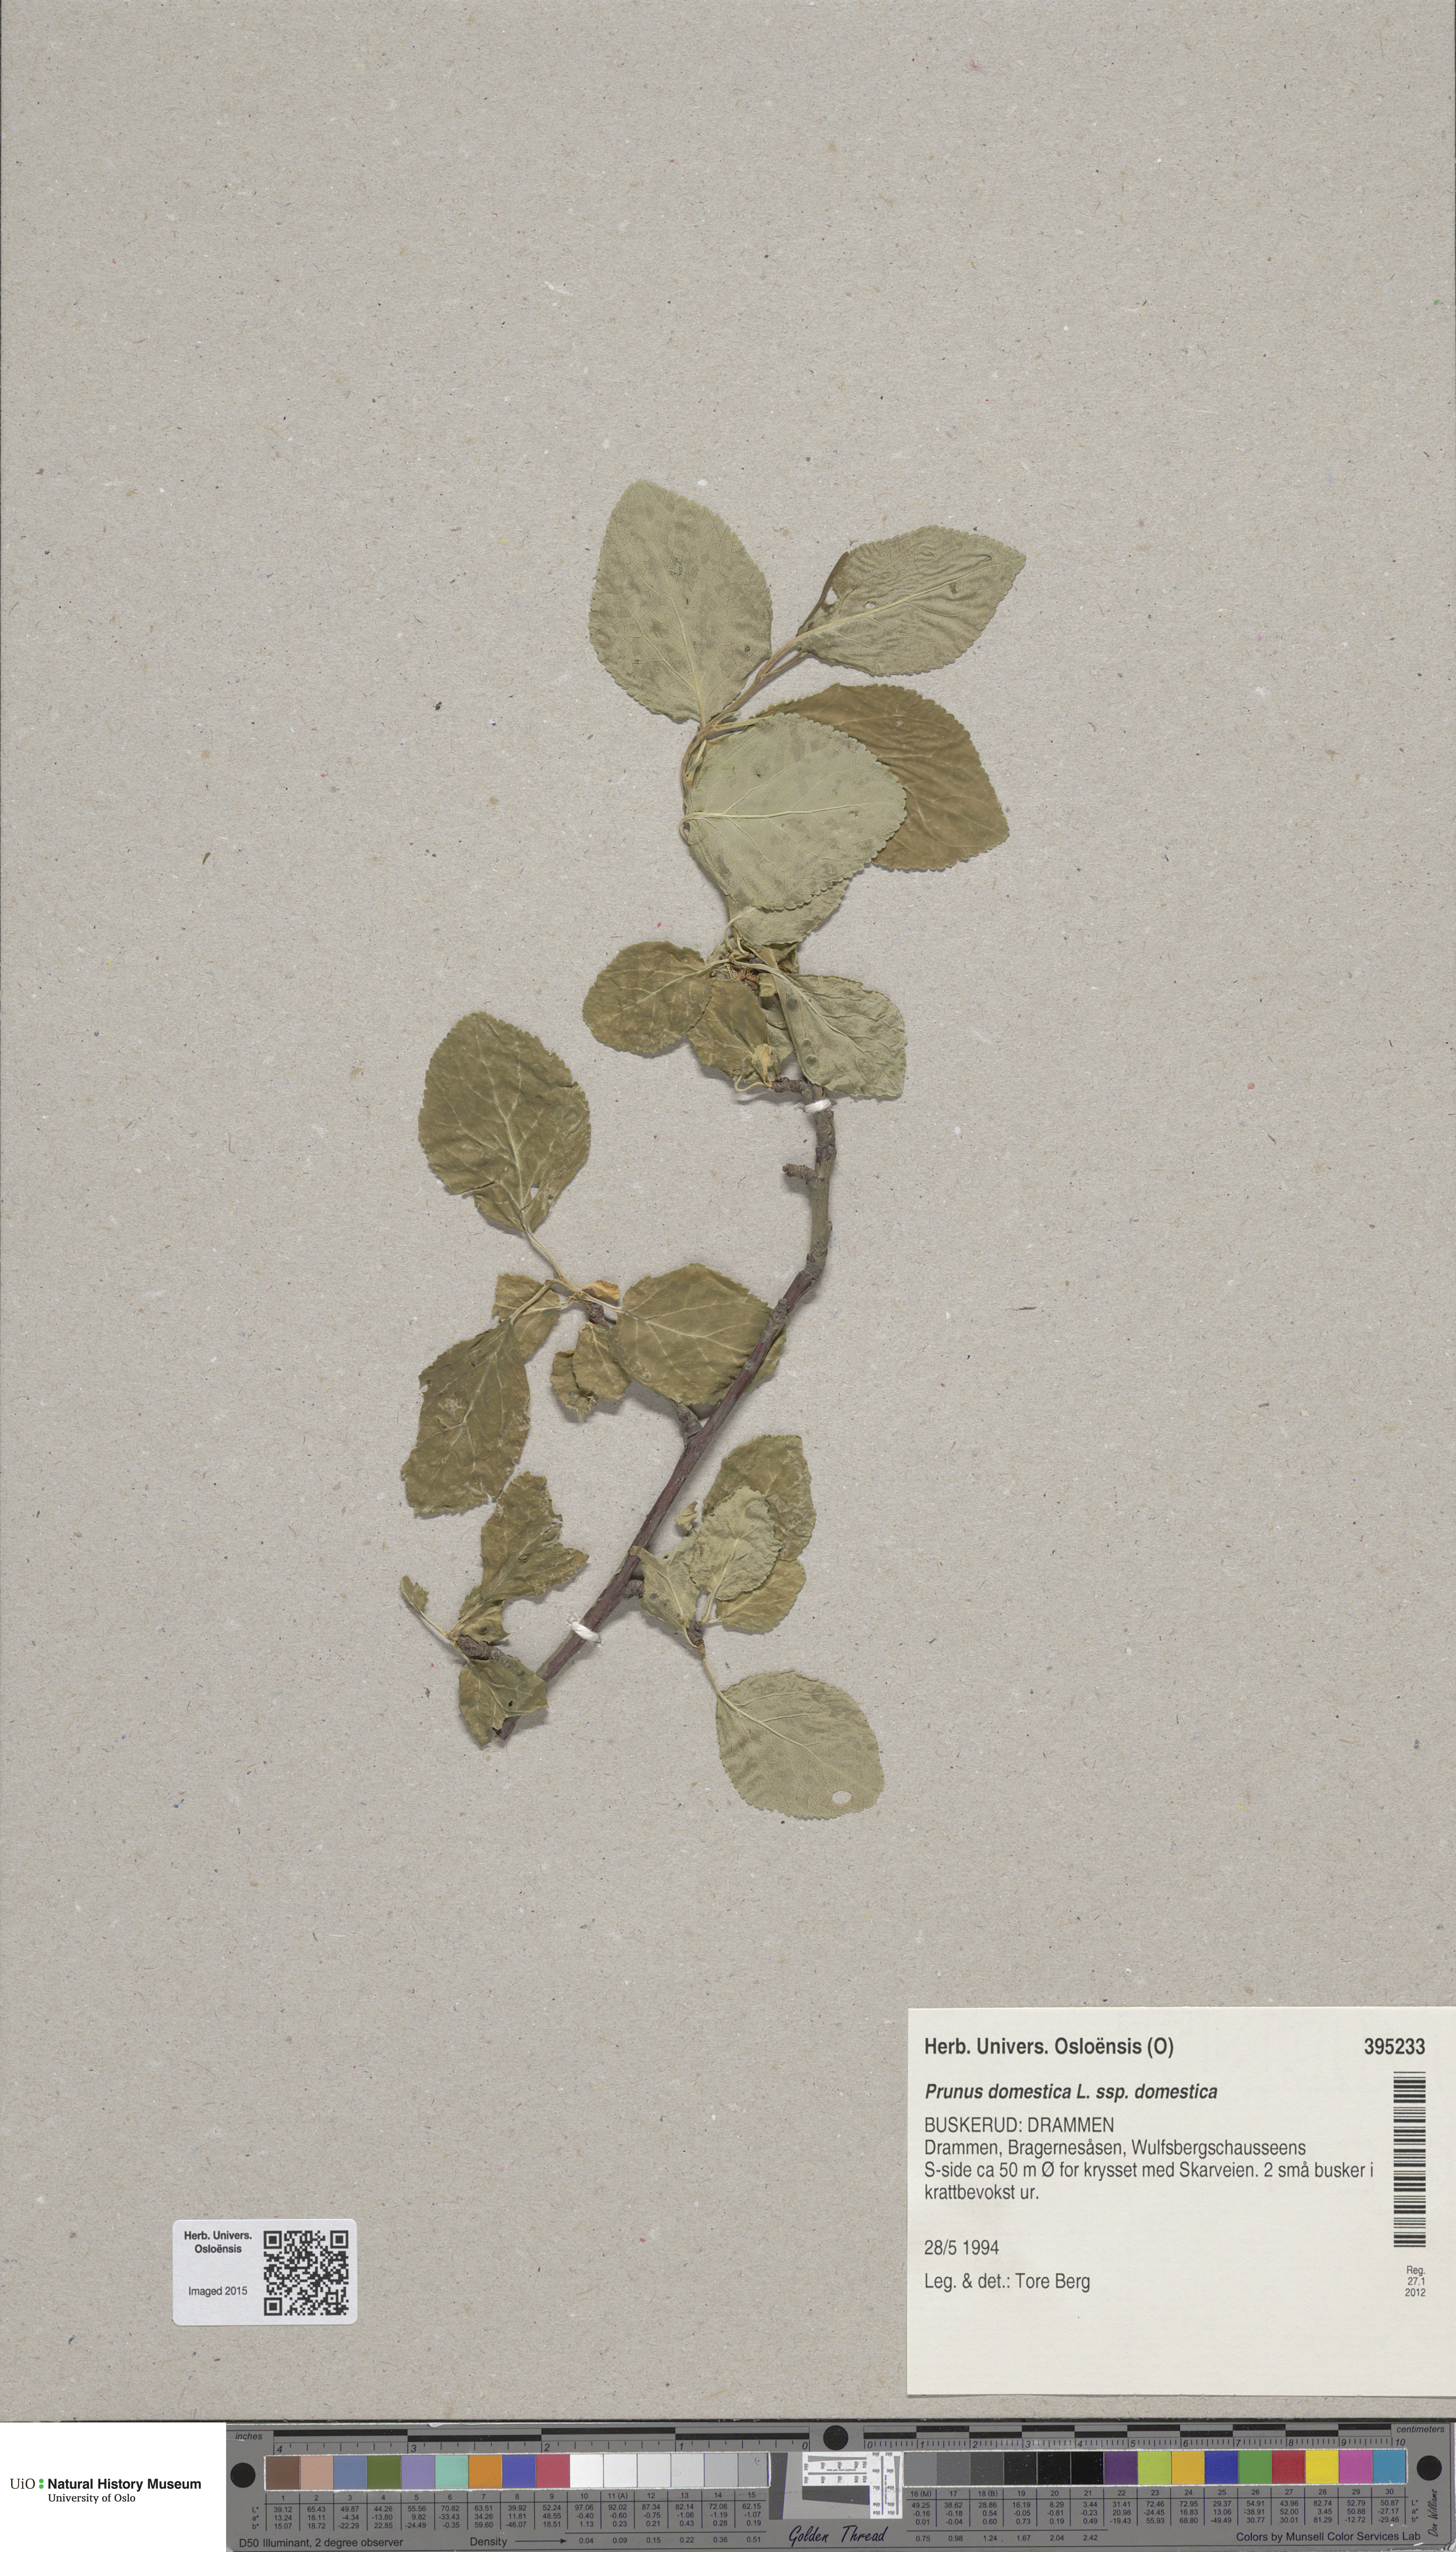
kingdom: Plantae
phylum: Tracheophyta
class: Magnoliopsida
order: Rosales
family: Rosaceae
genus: Prunus
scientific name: Prunus domestica
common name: Wild plum
